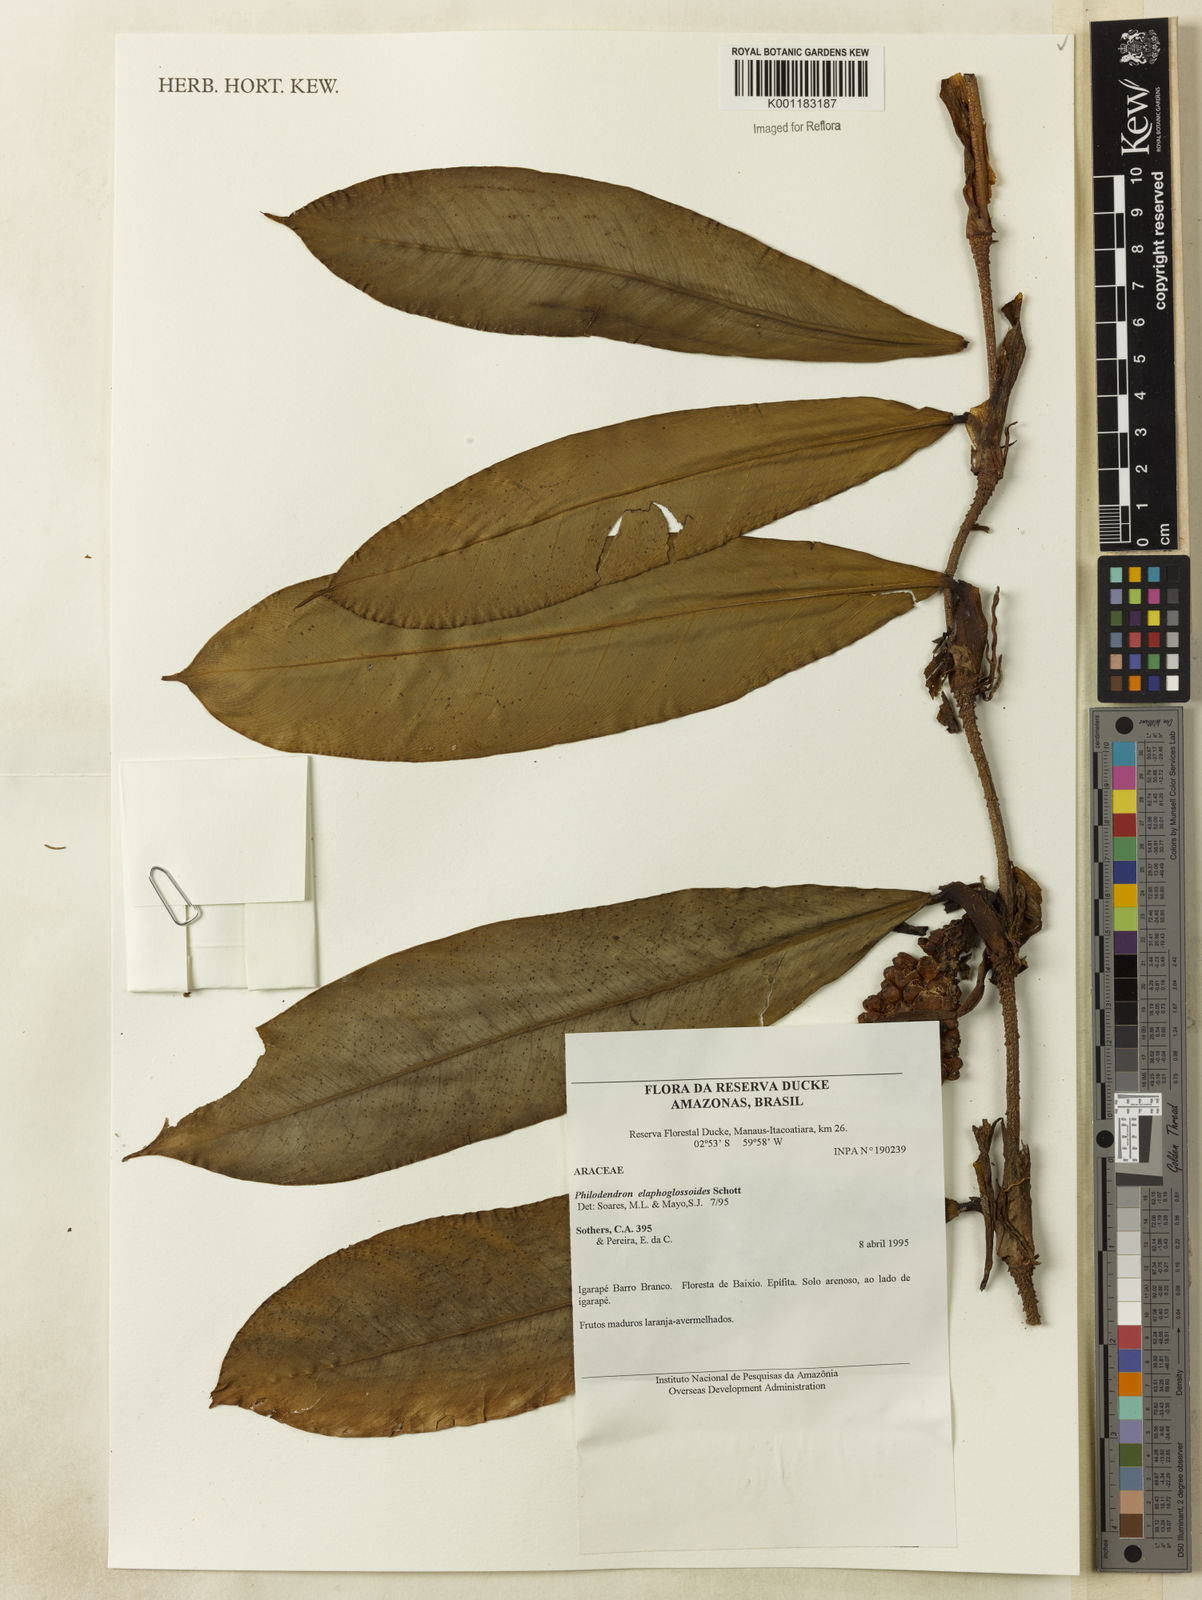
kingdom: Plantae
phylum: Tracheophyta
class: Liliopsida
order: Alismatales
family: Araceae
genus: Philodendron
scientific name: Philodendron elaphoglossoides
